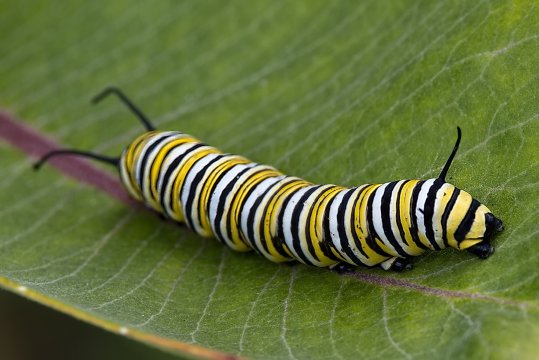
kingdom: Animalia
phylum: Arthropoda
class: Insecta
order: Lepidoptera
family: Nymphalidae
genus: Danaus
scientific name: Danaus plexippus
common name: Monarch
